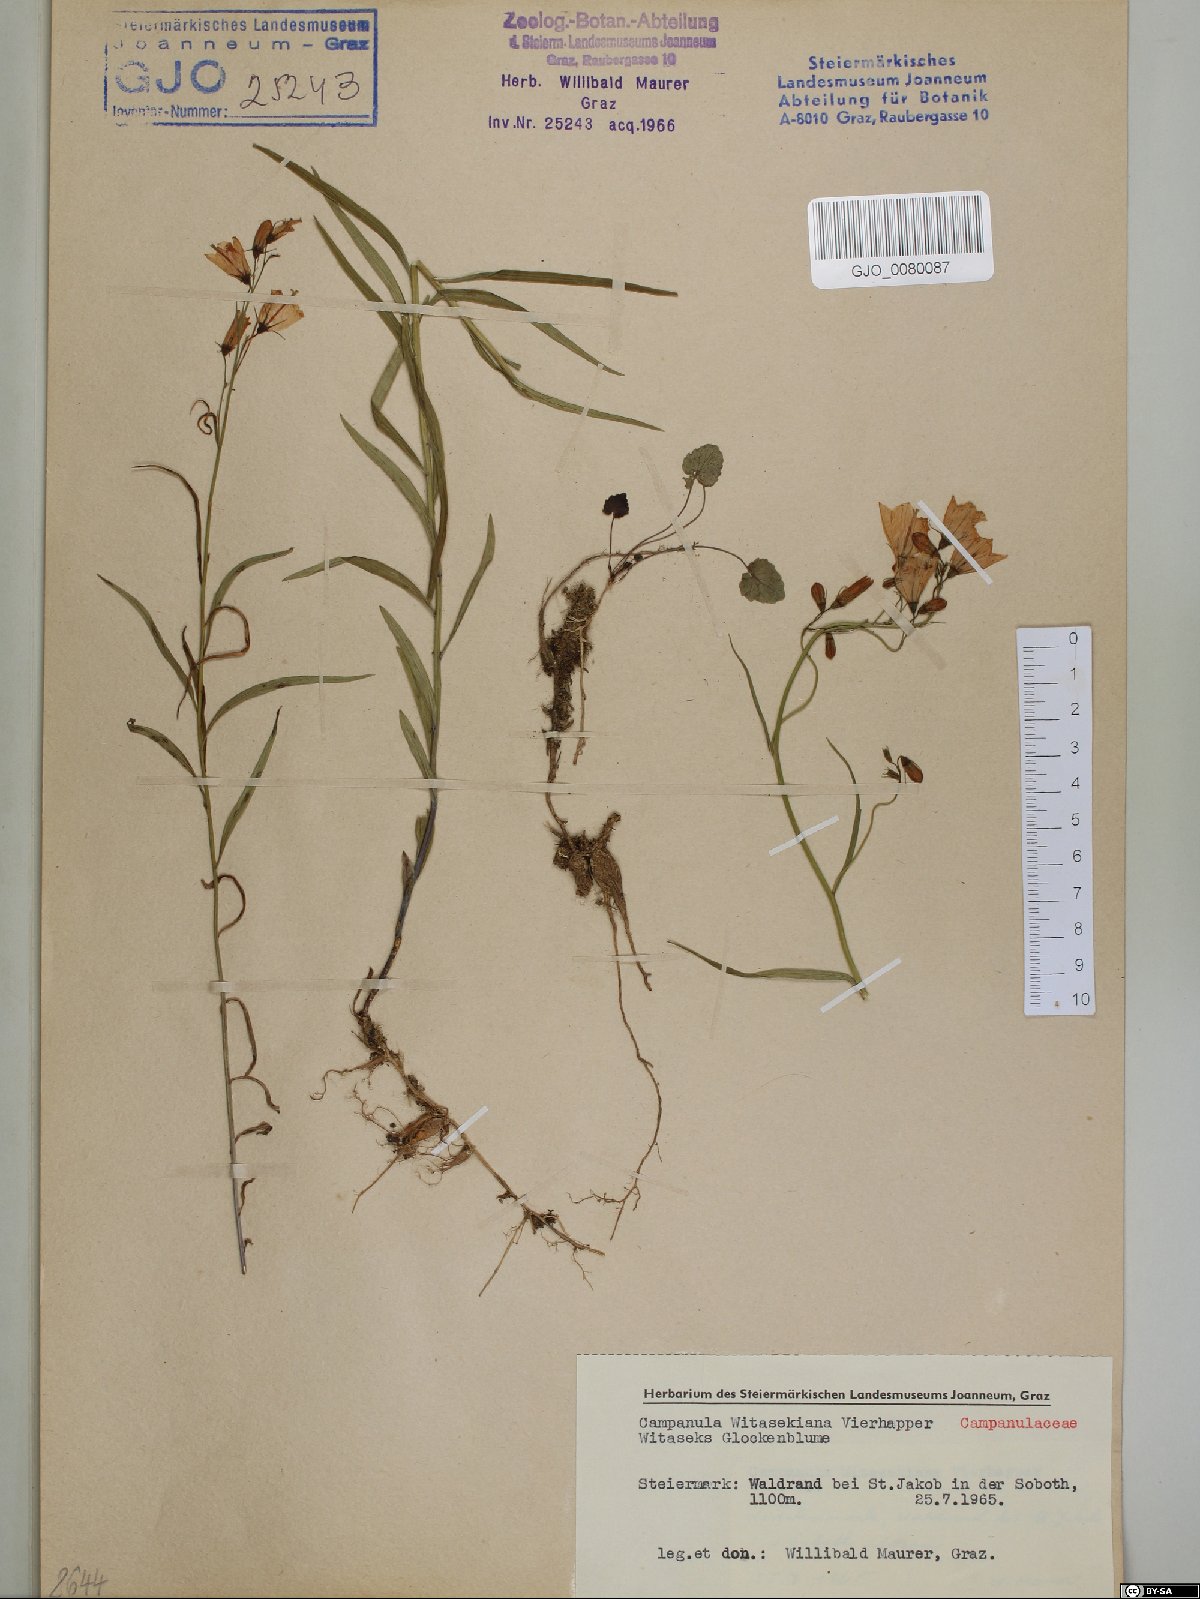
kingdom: Plantae
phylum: Tracheophyta
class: Magnoliopsida
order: Asterales
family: Campanulaceae
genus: Campanula
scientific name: Campanula witasekiana
